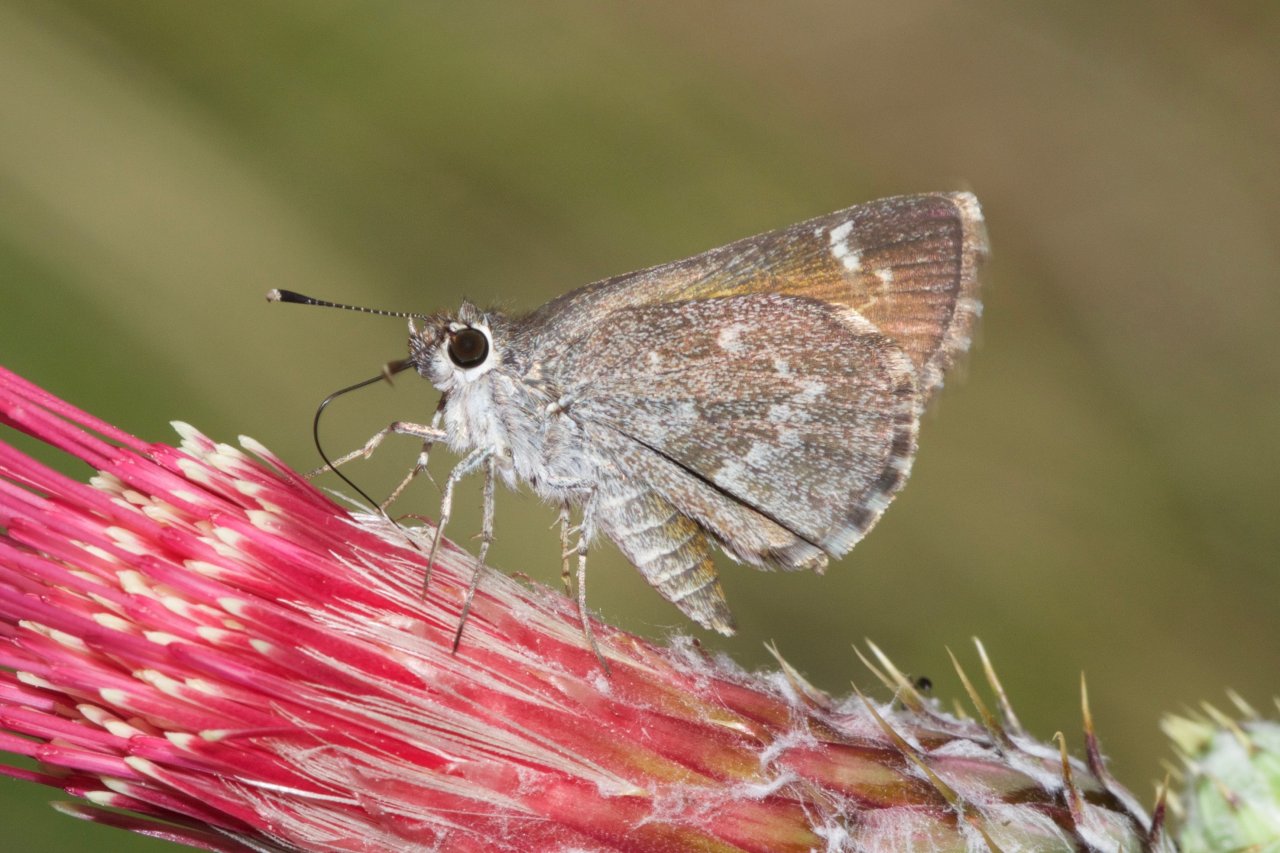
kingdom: Animalia
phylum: Arthropoda
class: Insecta
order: Lepidoptera
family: Hesperiidae
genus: Mastor
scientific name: Mastor cassus
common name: Cassus Roadside-Skipper
